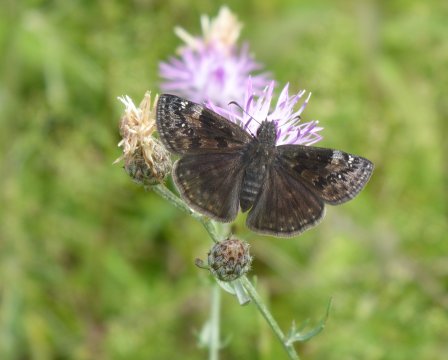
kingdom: Animalia
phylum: Arthropoda
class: Insecta
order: Lepidoptera
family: Hesperiidae
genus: Gesta
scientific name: Gesta
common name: Wild Indigo Duskywing
